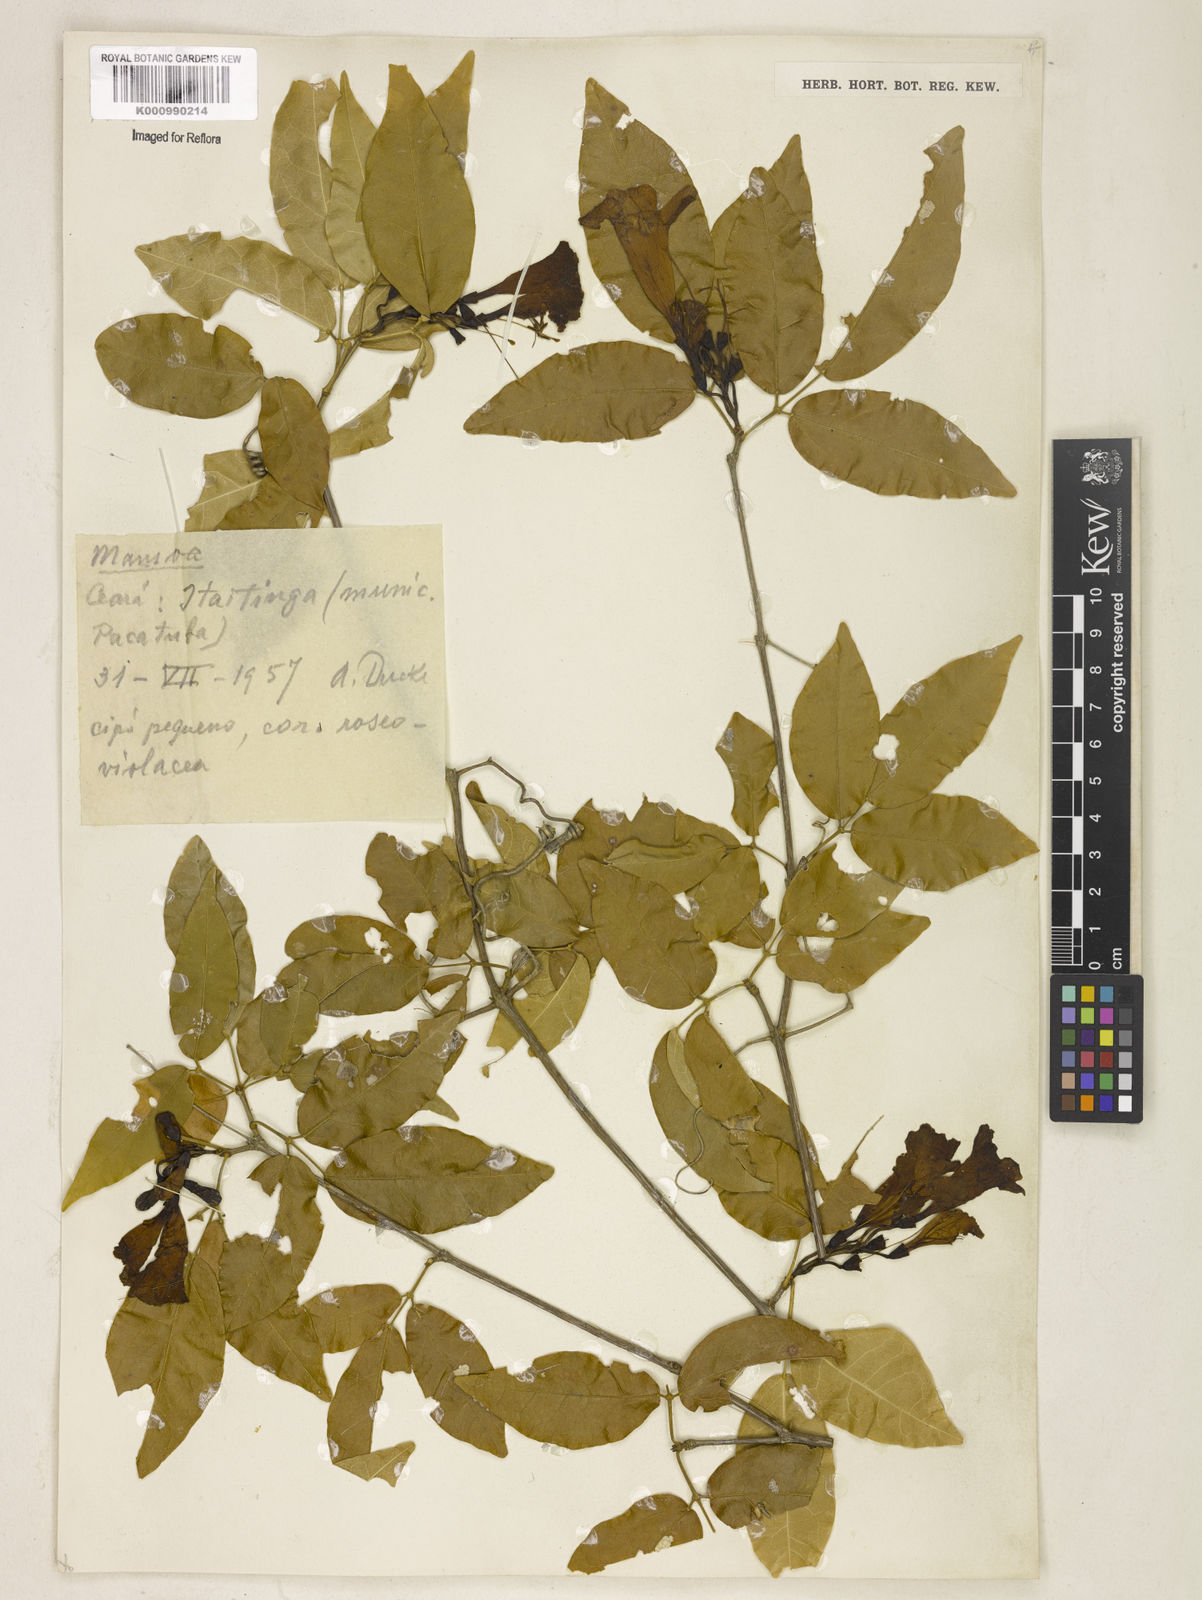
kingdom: Plantae
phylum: Tracheophyta
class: Magnoliopsida
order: Lamiales
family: Bignoniaceae
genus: Mansoa
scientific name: Mansoa
